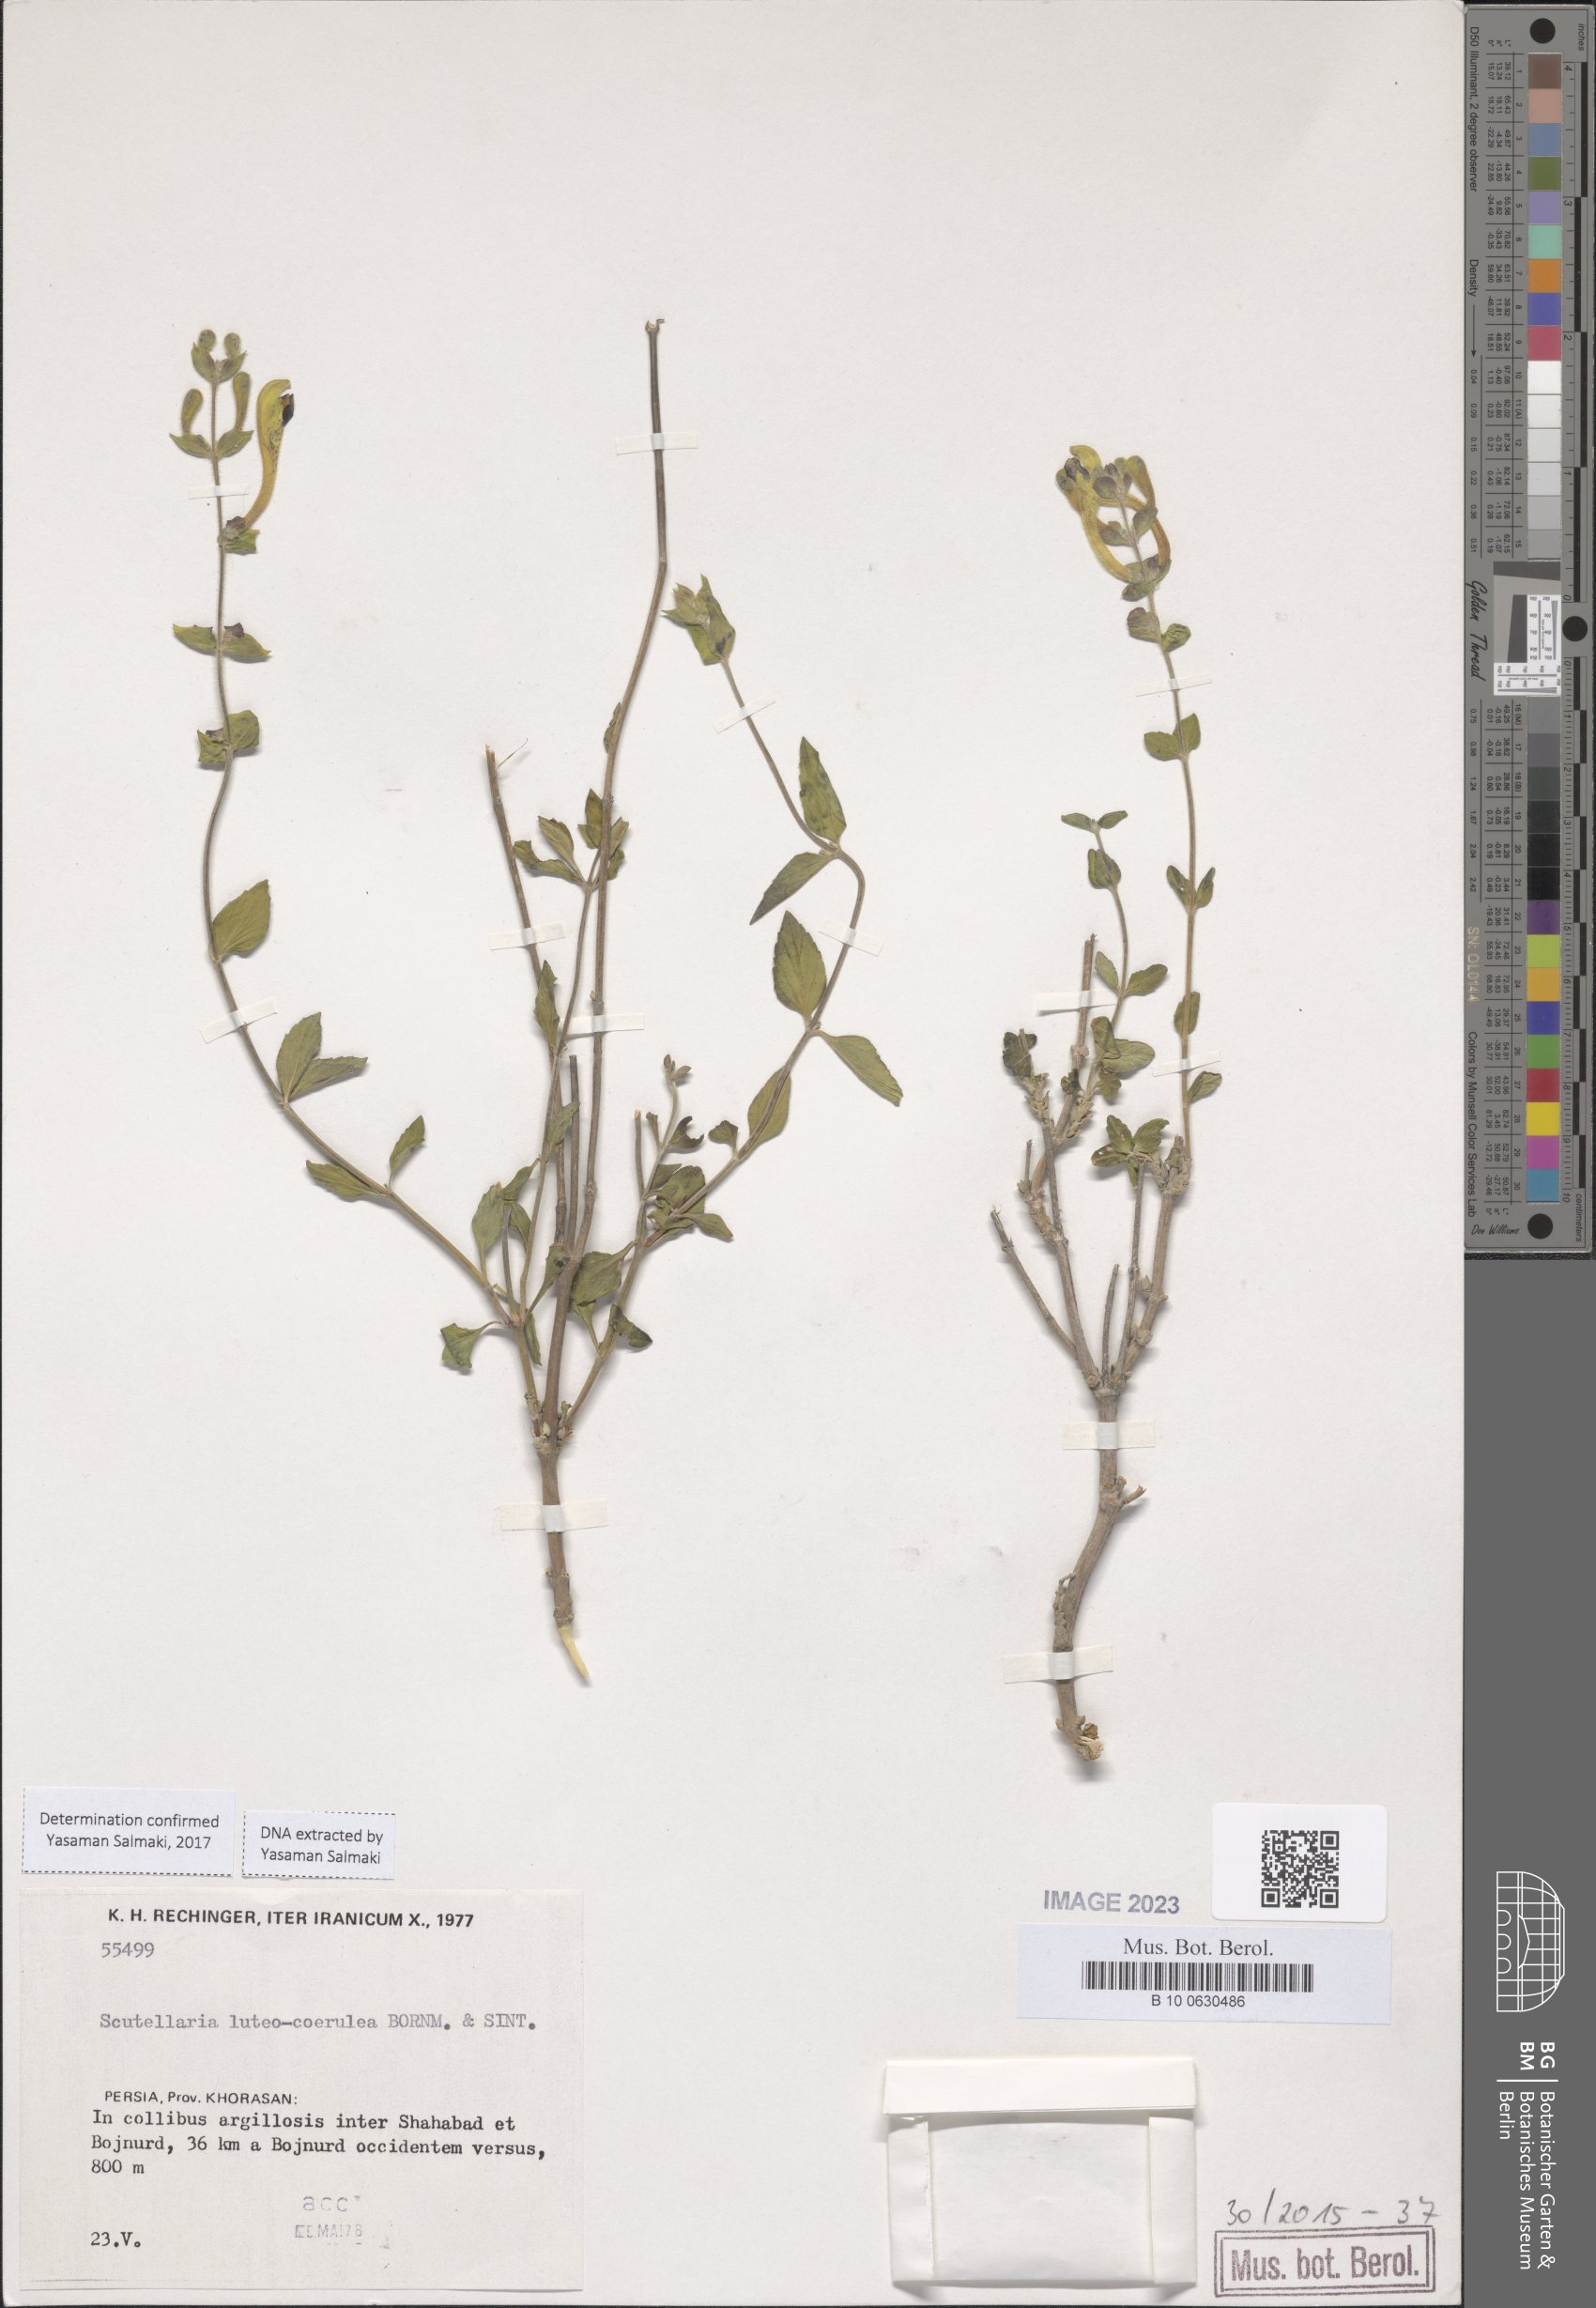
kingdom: Plantae
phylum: Tracheophyta
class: Magnoliopsida
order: Lamiales
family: Lamiaceae
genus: Scutellaria
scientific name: Scutellaria luteocaerulea
